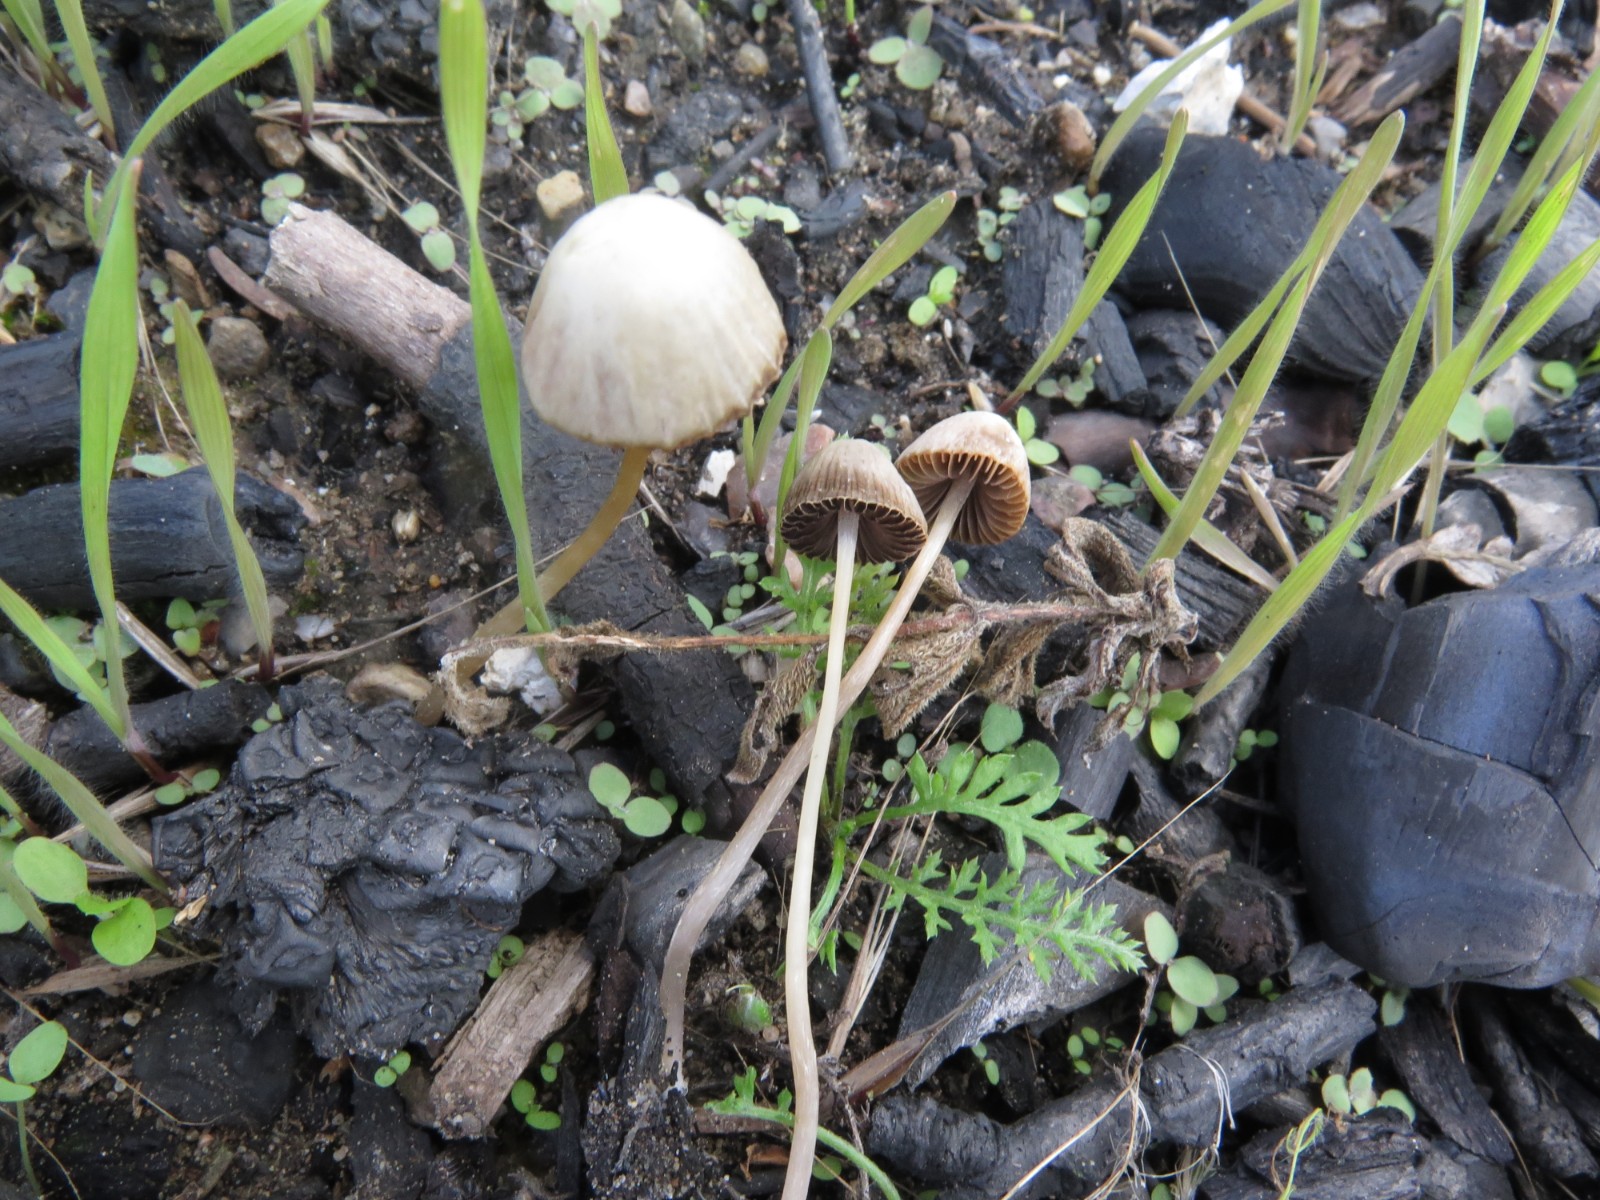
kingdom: Fungi
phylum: Basidiomycota
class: Agaricomycetes
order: Agaricales
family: Psathyrellaceae
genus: Psathyrella
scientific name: Psathyrella
